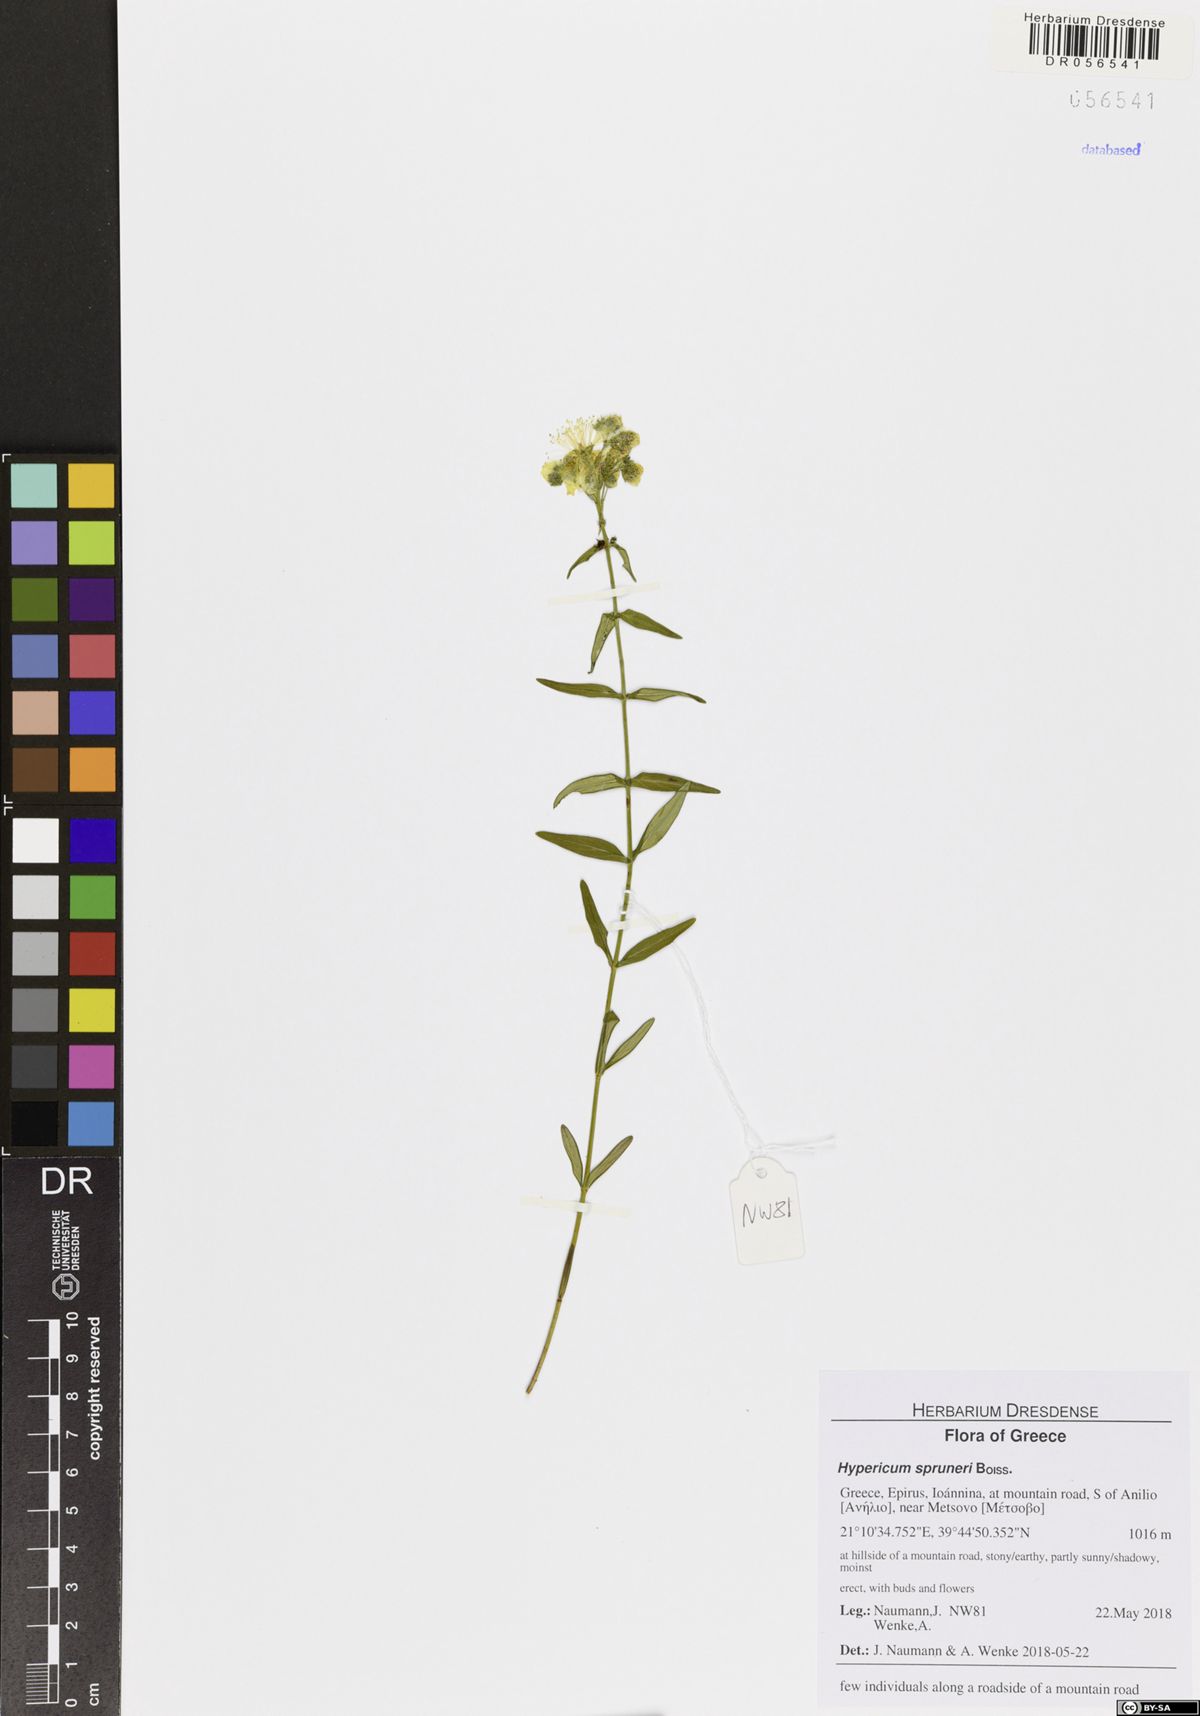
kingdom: Plantae
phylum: Tracheophyta
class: Magnoliopsida
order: Malpighiales
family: Hypericaceae
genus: Hypericum
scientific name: Hypericum spruneri
